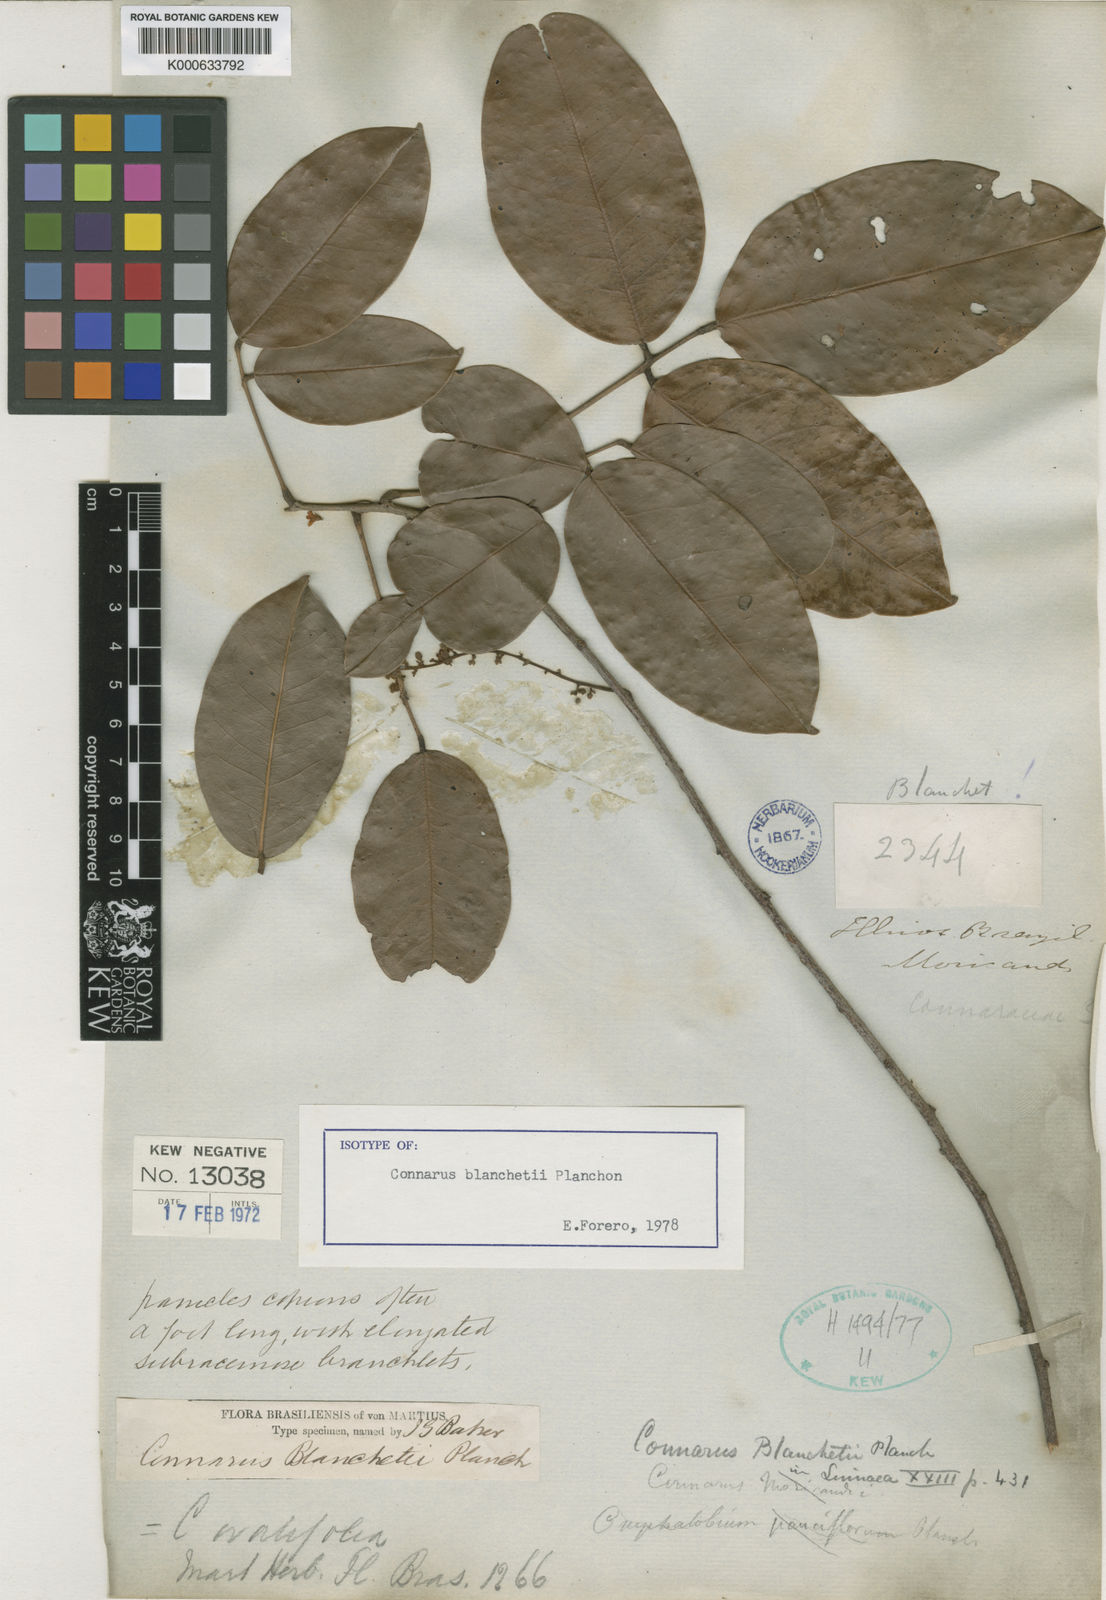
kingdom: Plantae
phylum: Tracheophyta
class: Magnoliopsida
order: Oxalidales
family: Connaraceae
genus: Connarus
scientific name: Connarus blanchetii
